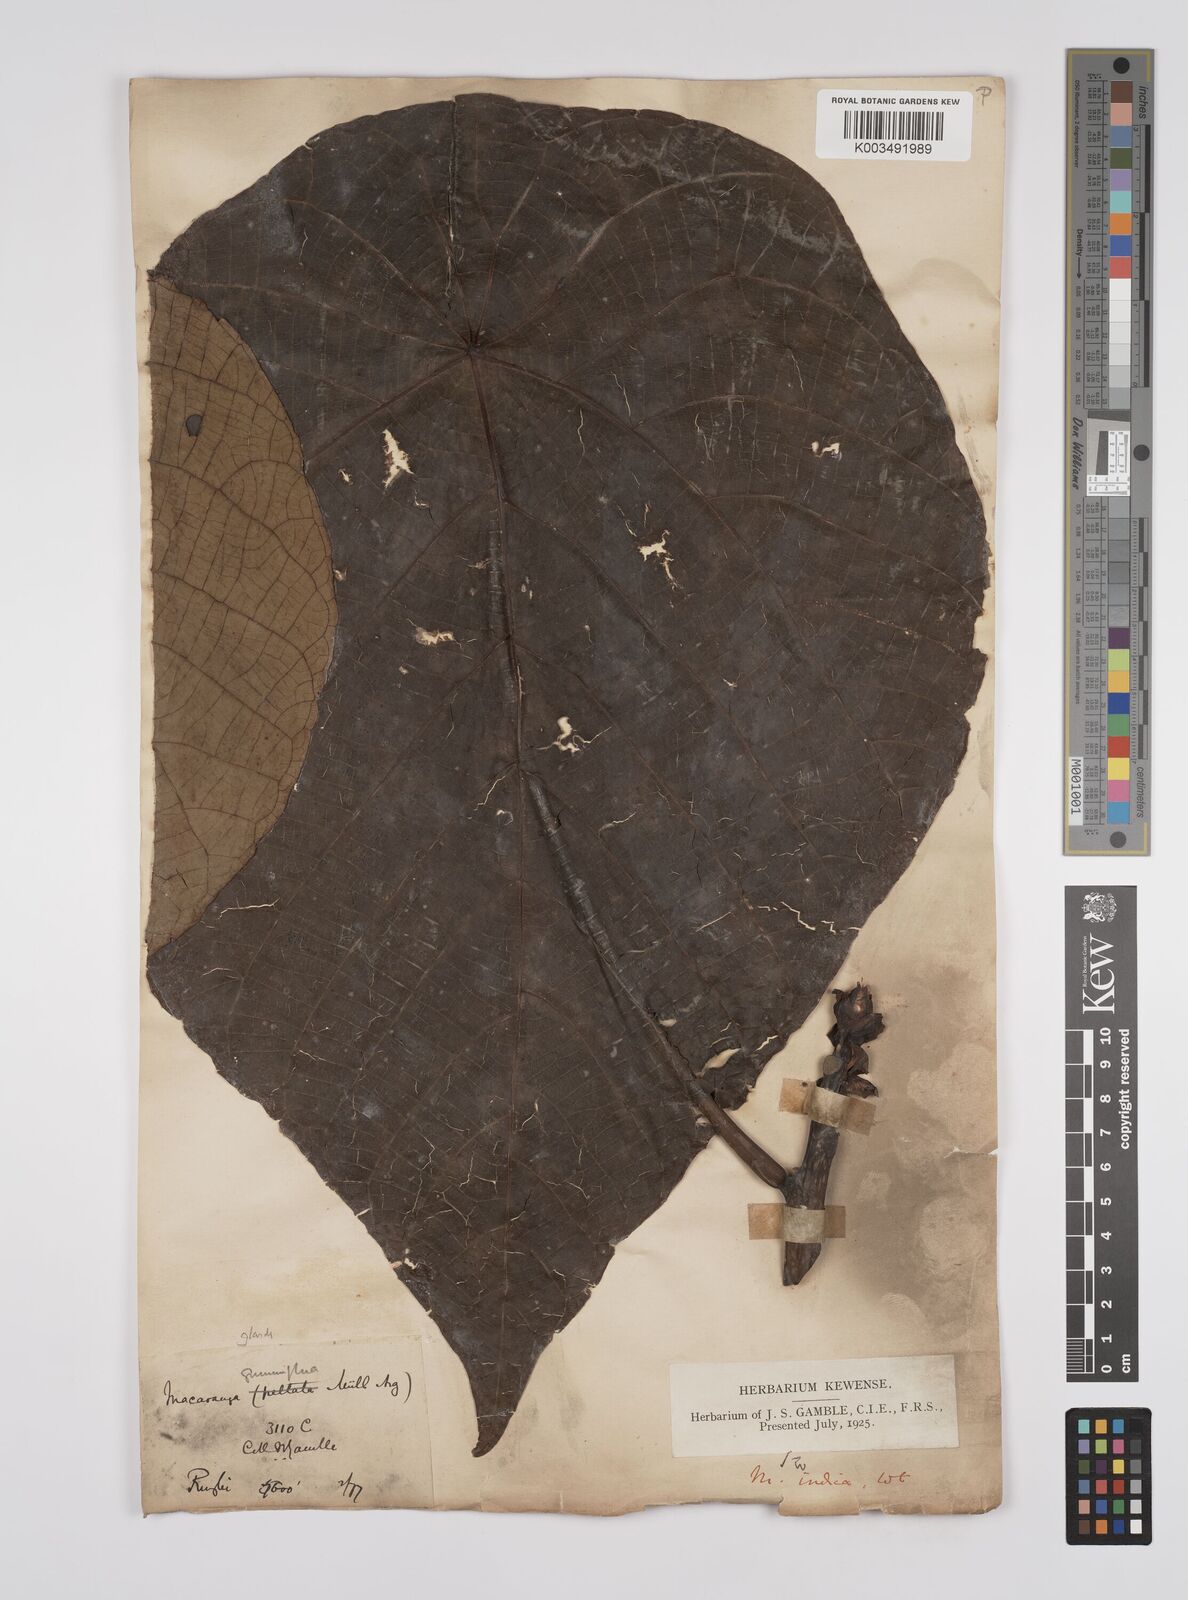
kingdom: Plantae
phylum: Tracheophyta
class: Magnoliopsida
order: Malpighiales
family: Euphorbiaceae
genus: Macaranga
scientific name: Macaranga indica
